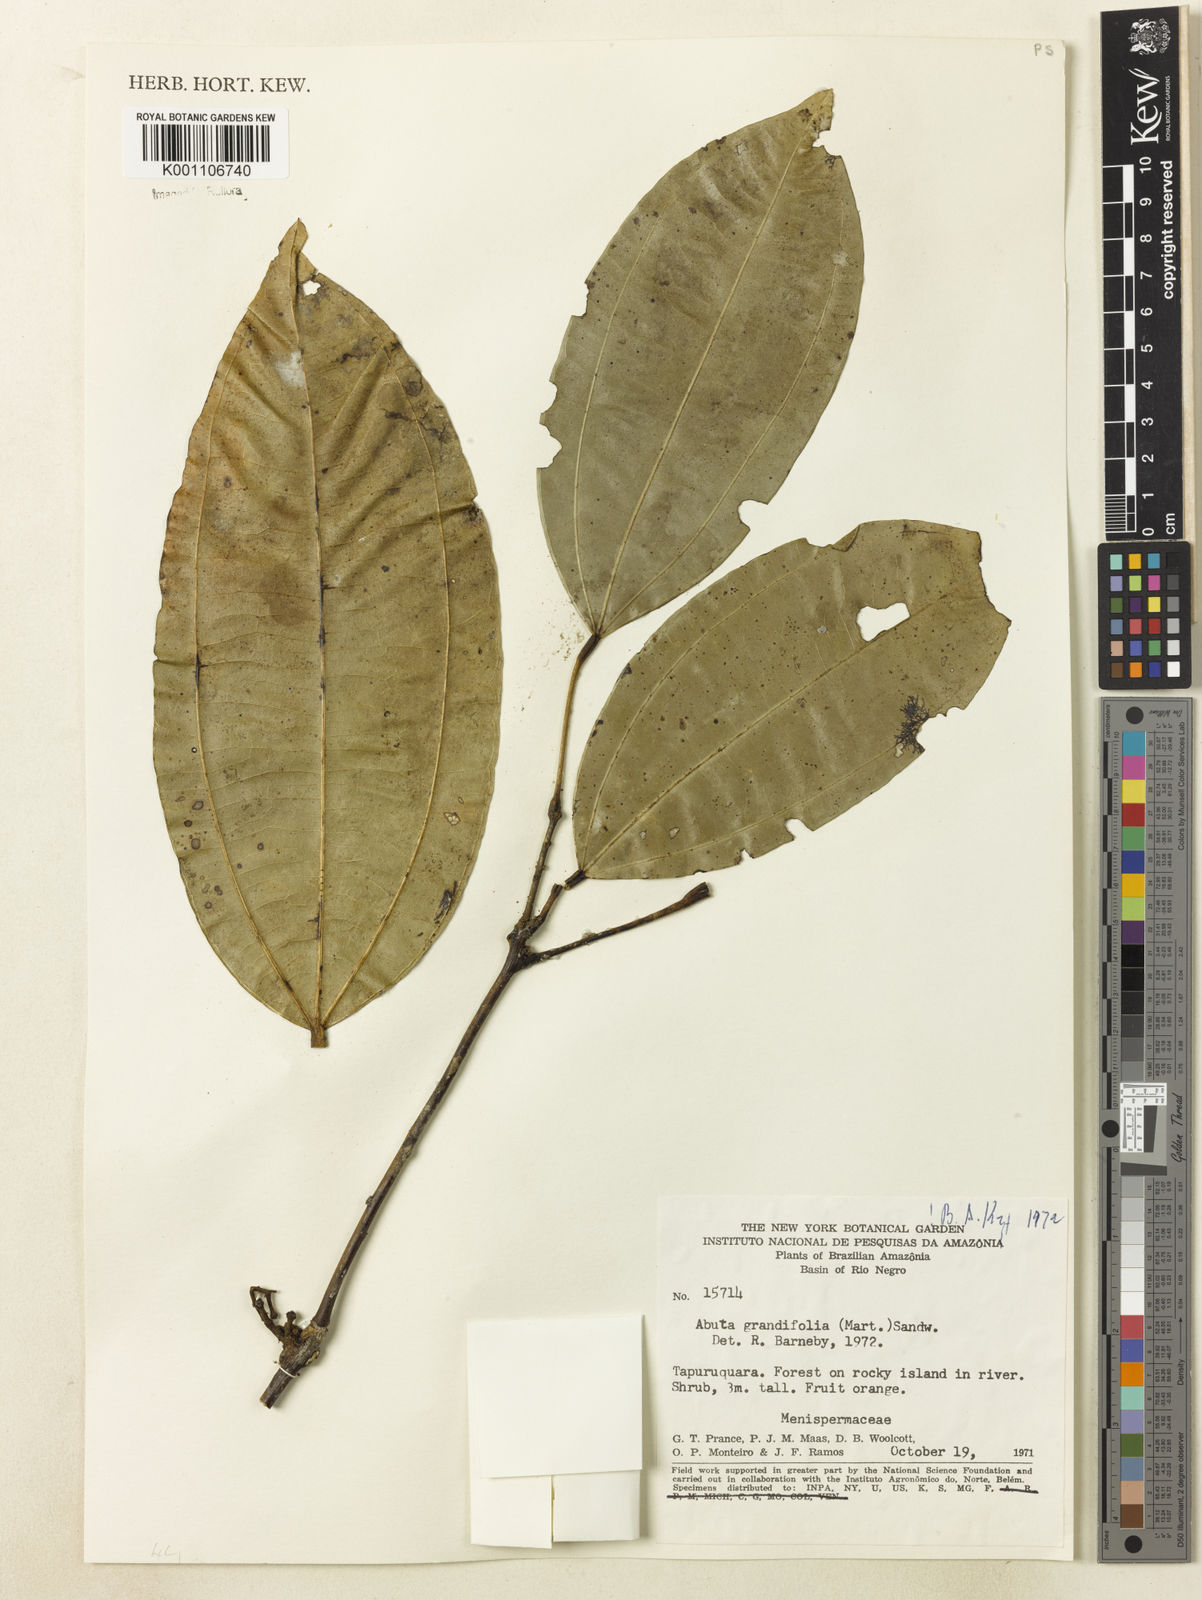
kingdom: Plantae
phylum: Tracheophyta
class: Magnoliopsida
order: Ranunculales
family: Menispermaceae
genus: Abuta
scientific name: Abuta grandifolia
